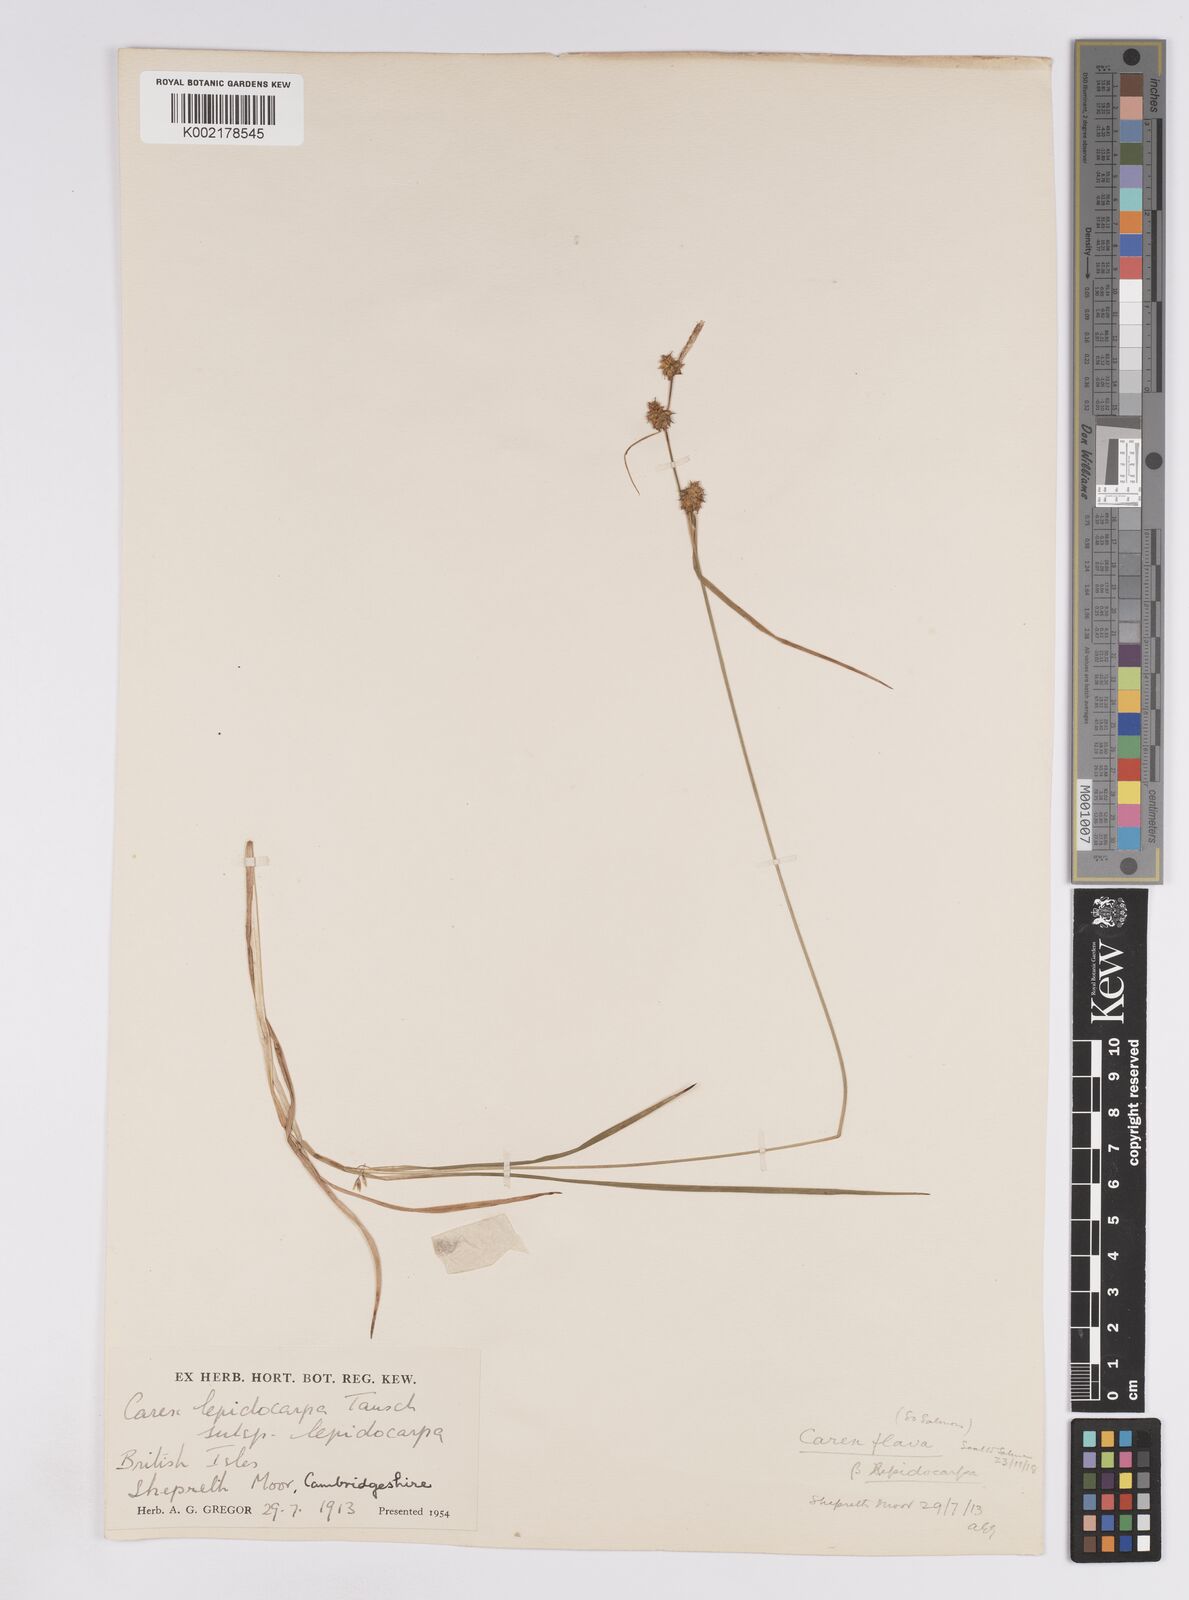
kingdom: Plantae
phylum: Tracheophyta
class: Liliopsida
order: Poales
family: Cyperaceae
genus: Carex
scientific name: Carex lepidocarpa
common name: Long-stalked yellow-sedge
